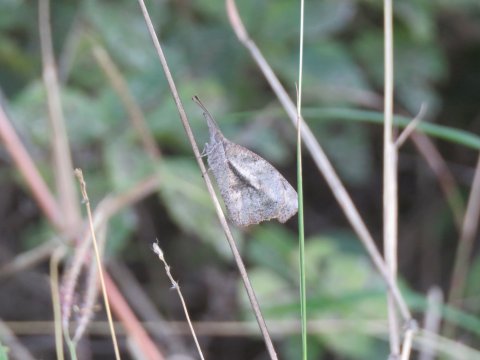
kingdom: Animalia
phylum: Arthropoda
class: Insecta
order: Lepidoptera
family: Nymphalidae
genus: Libytheana
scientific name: Libytheana carinenta
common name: American Snout
